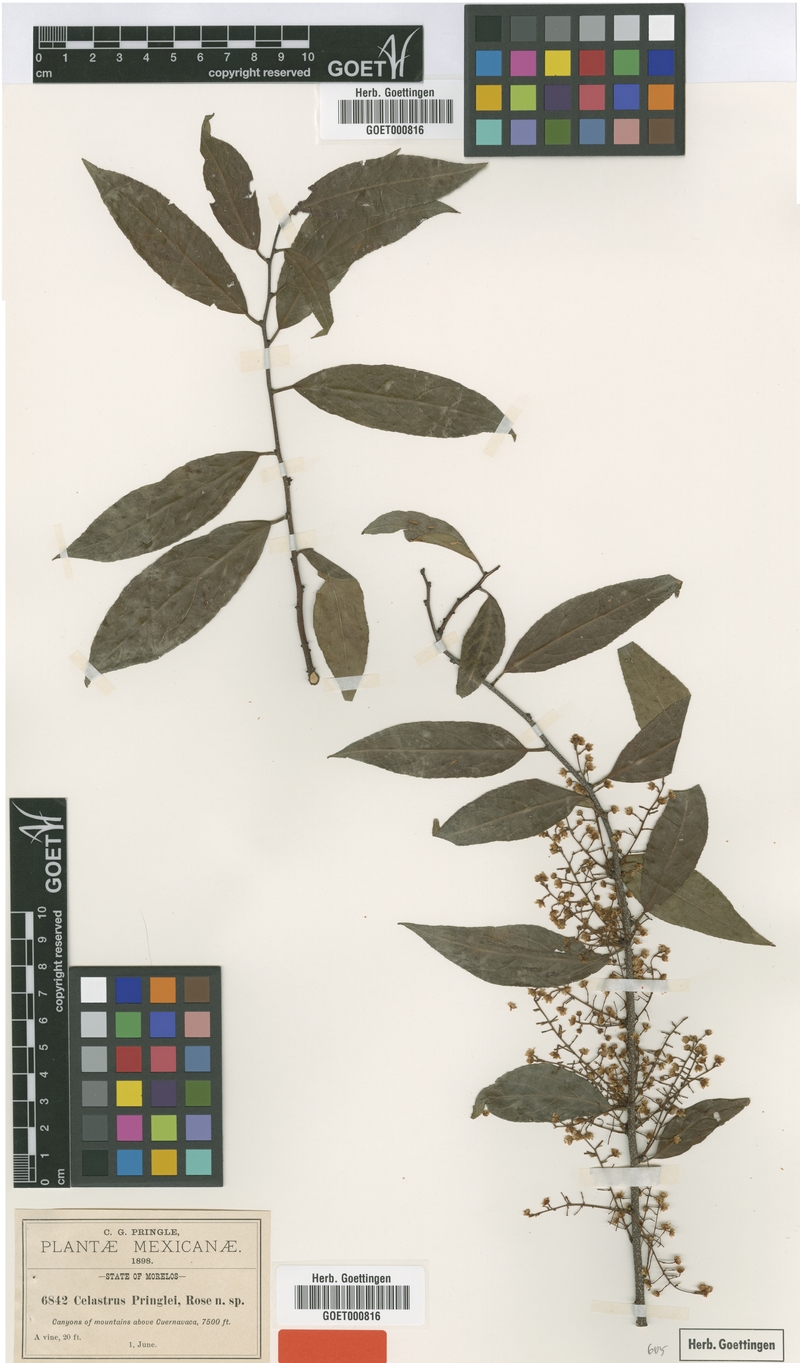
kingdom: Plantae
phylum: Tracheophyta
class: Magnoliopsida
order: Celastrales
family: Celastraceae
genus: Celastrus
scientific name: Celastrus pringlei
